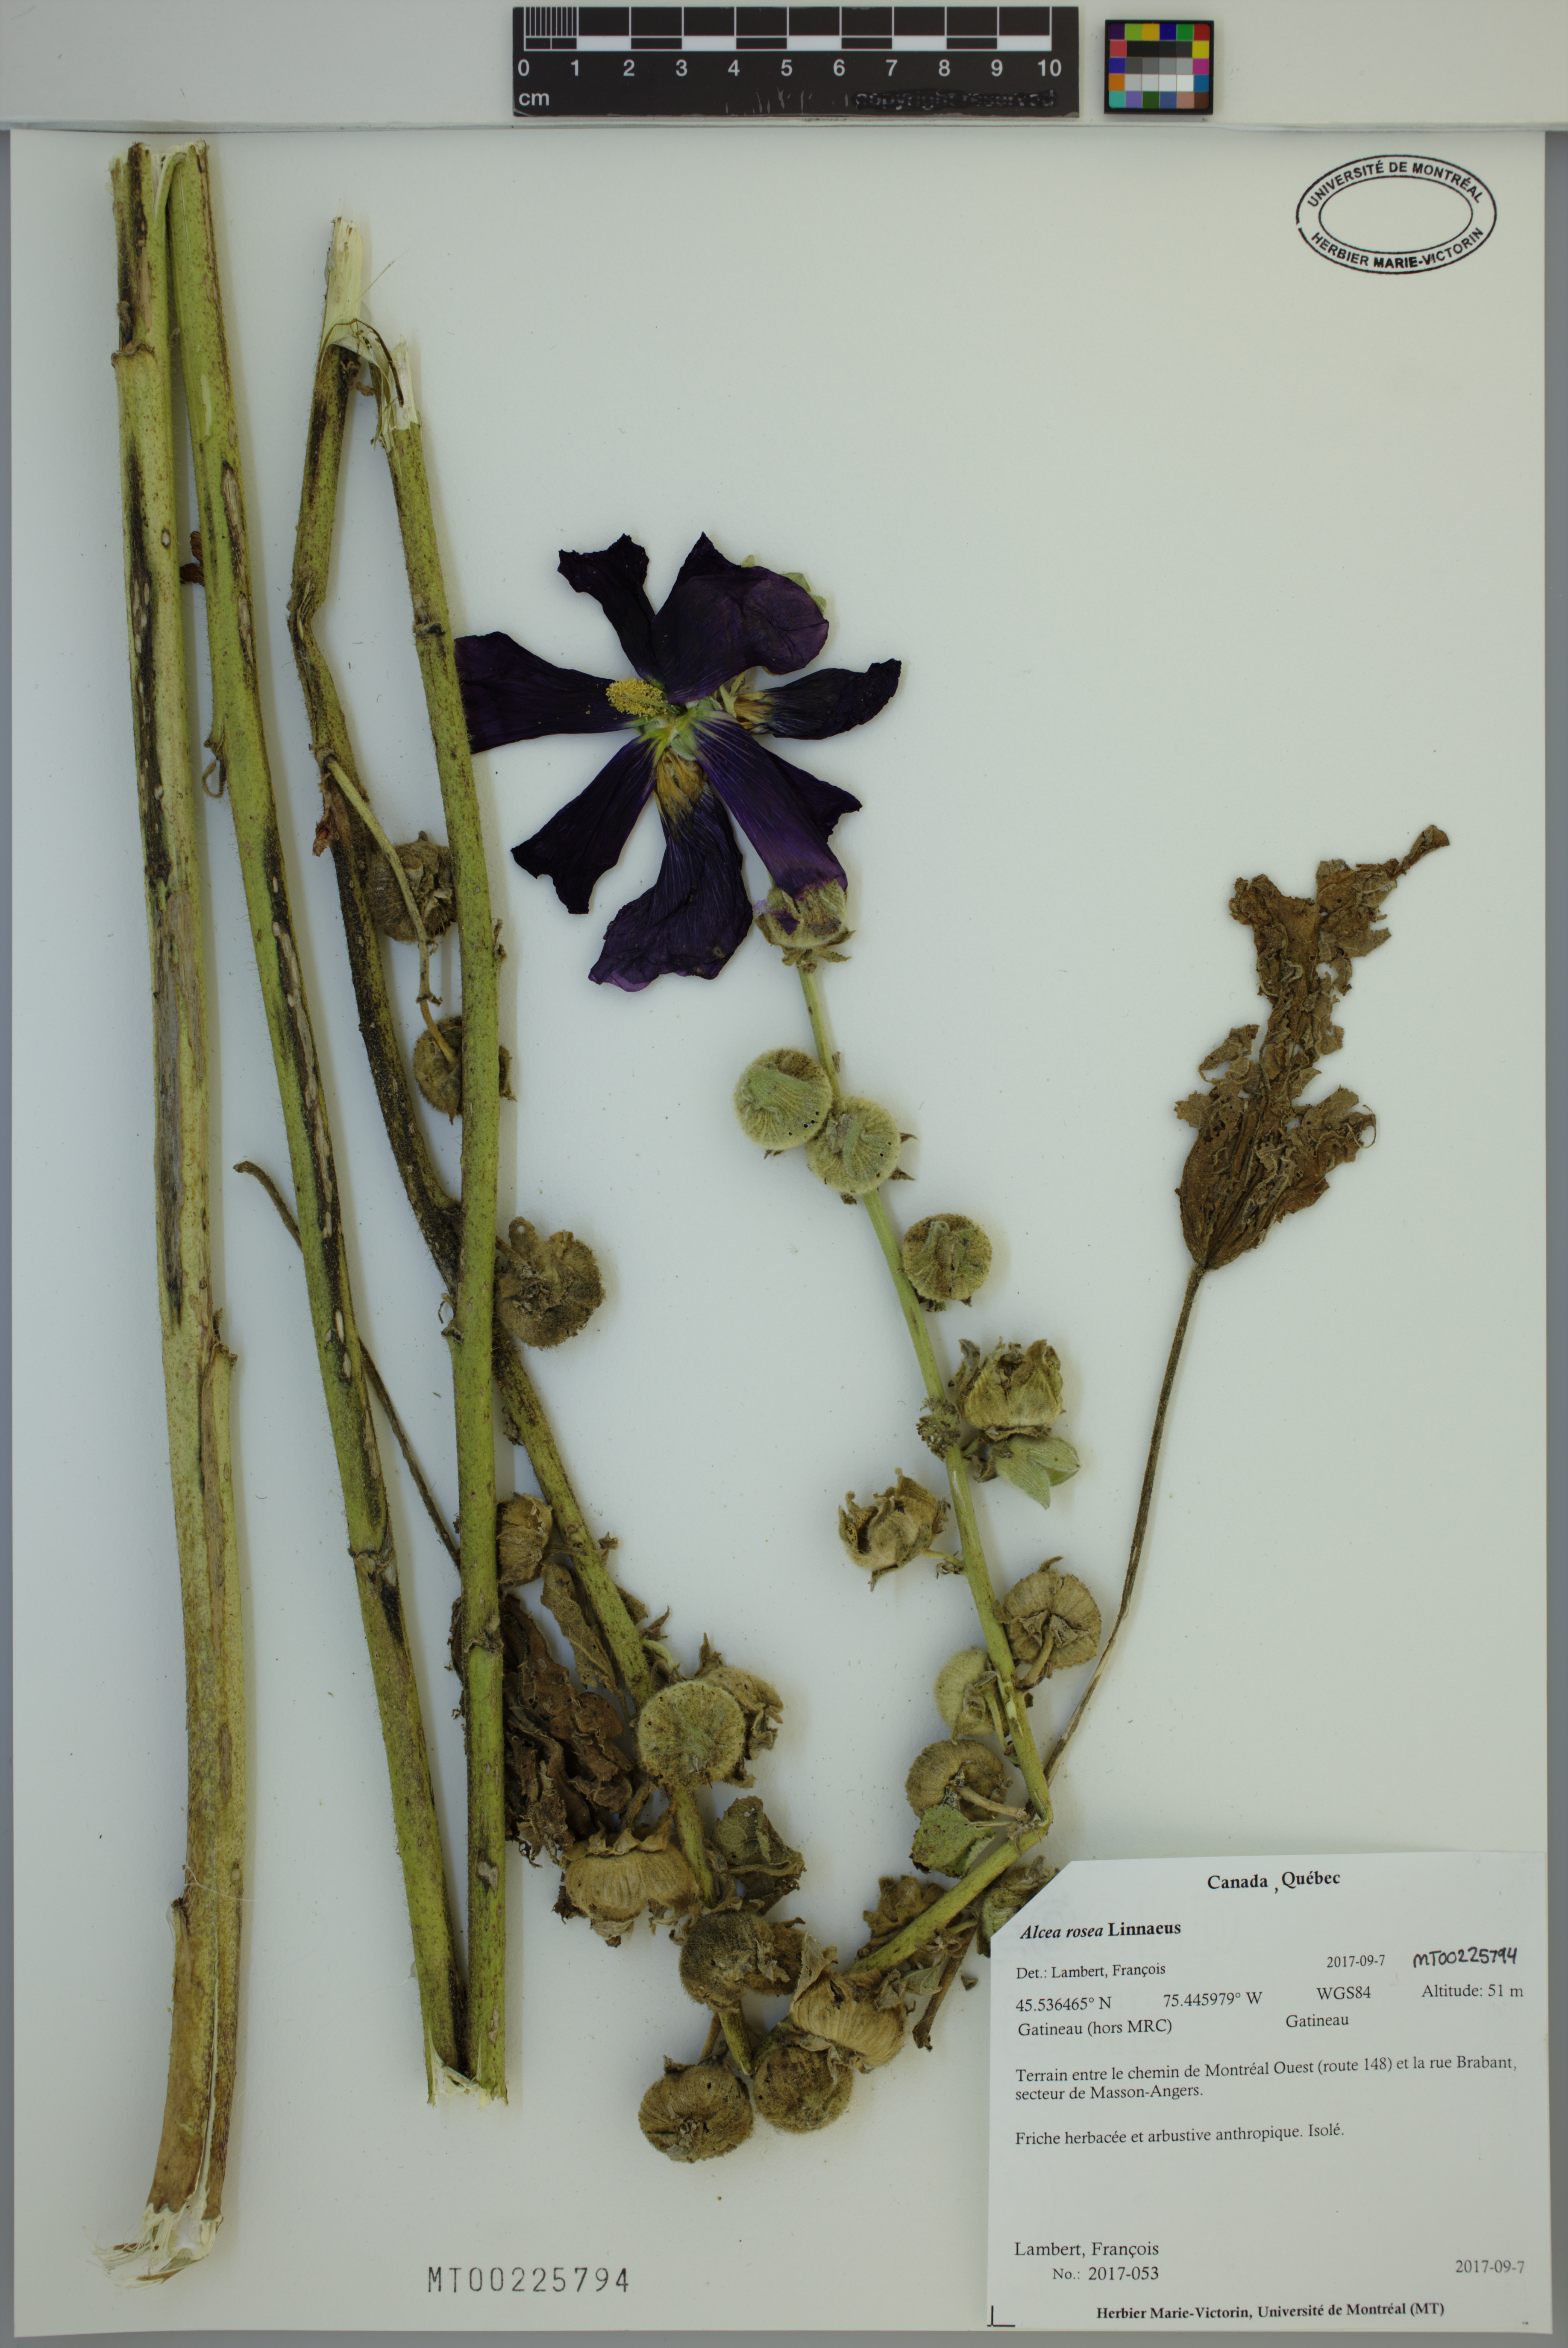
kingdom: Plantae
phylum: Tracheophyta
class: Magnoliopsida
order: Malvales
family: Malvaceae
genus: Alcea
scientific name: Alcea rosea
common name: Hollyhock
